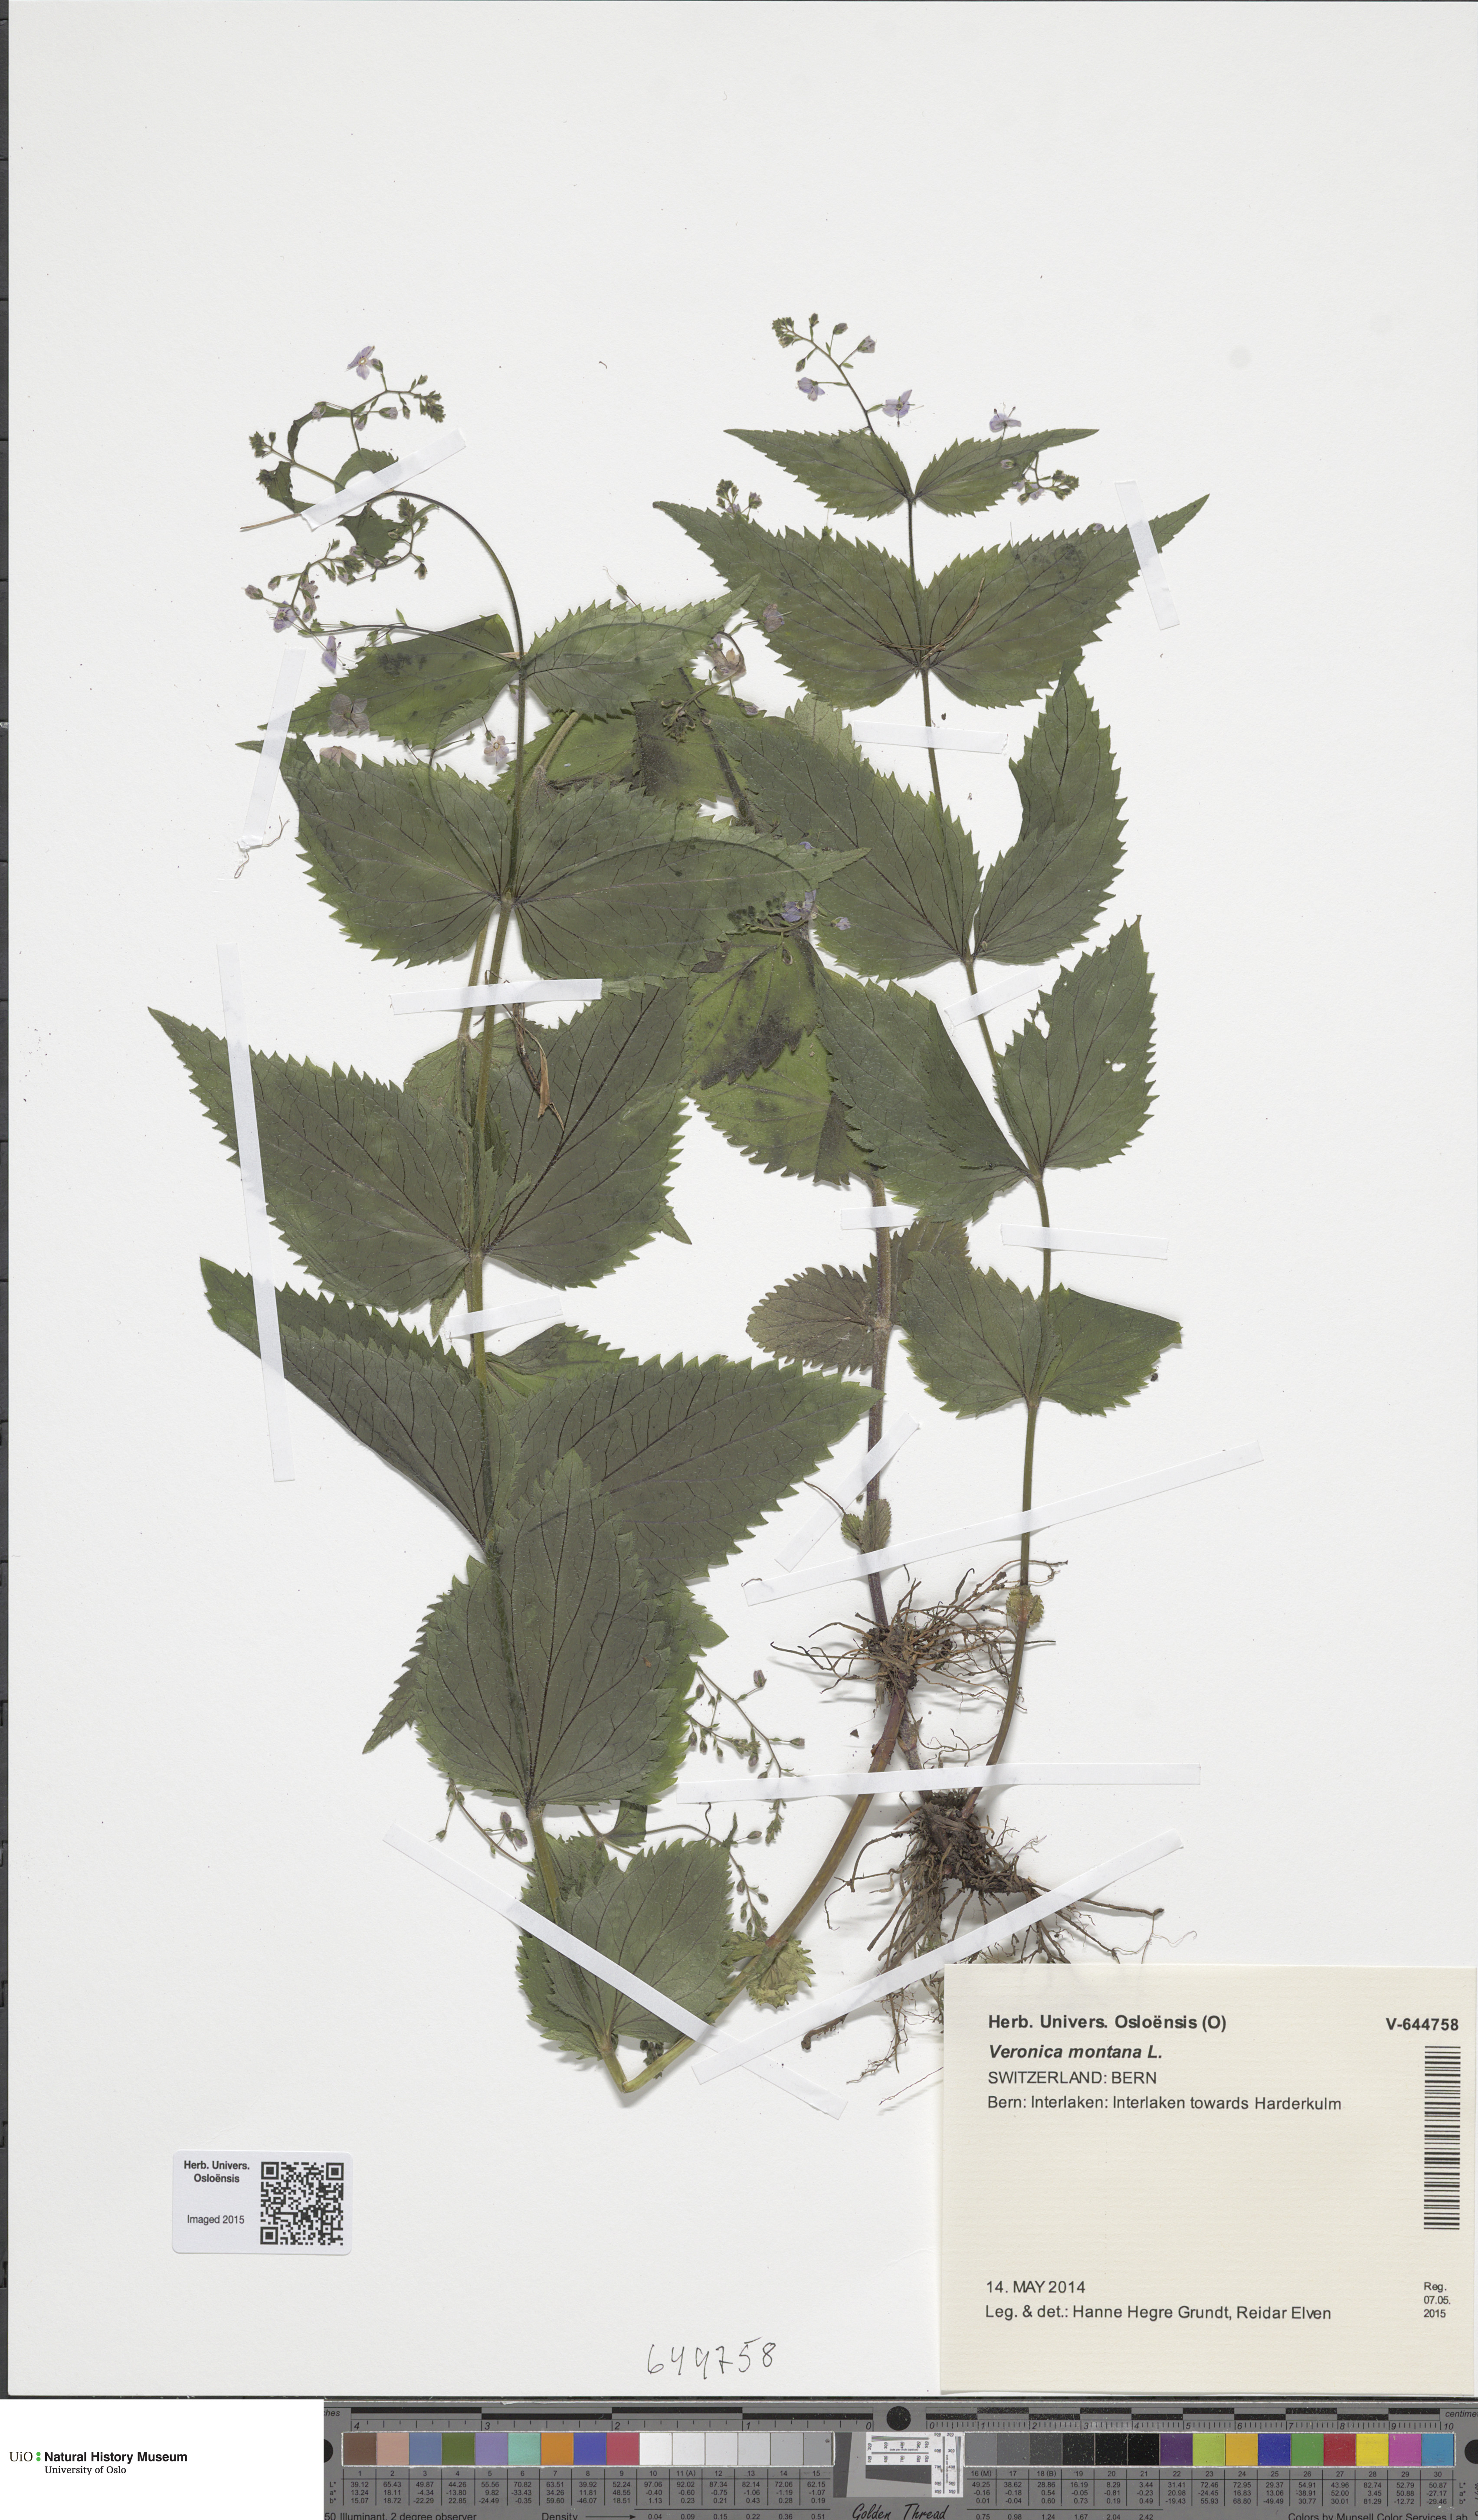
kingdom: Plantae
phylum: Tracheophyta
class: Magnoliopsida
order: Lamiales
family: Plantaginaceae
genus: Veronica
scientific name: Veronica montana
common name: Wood speedwell
